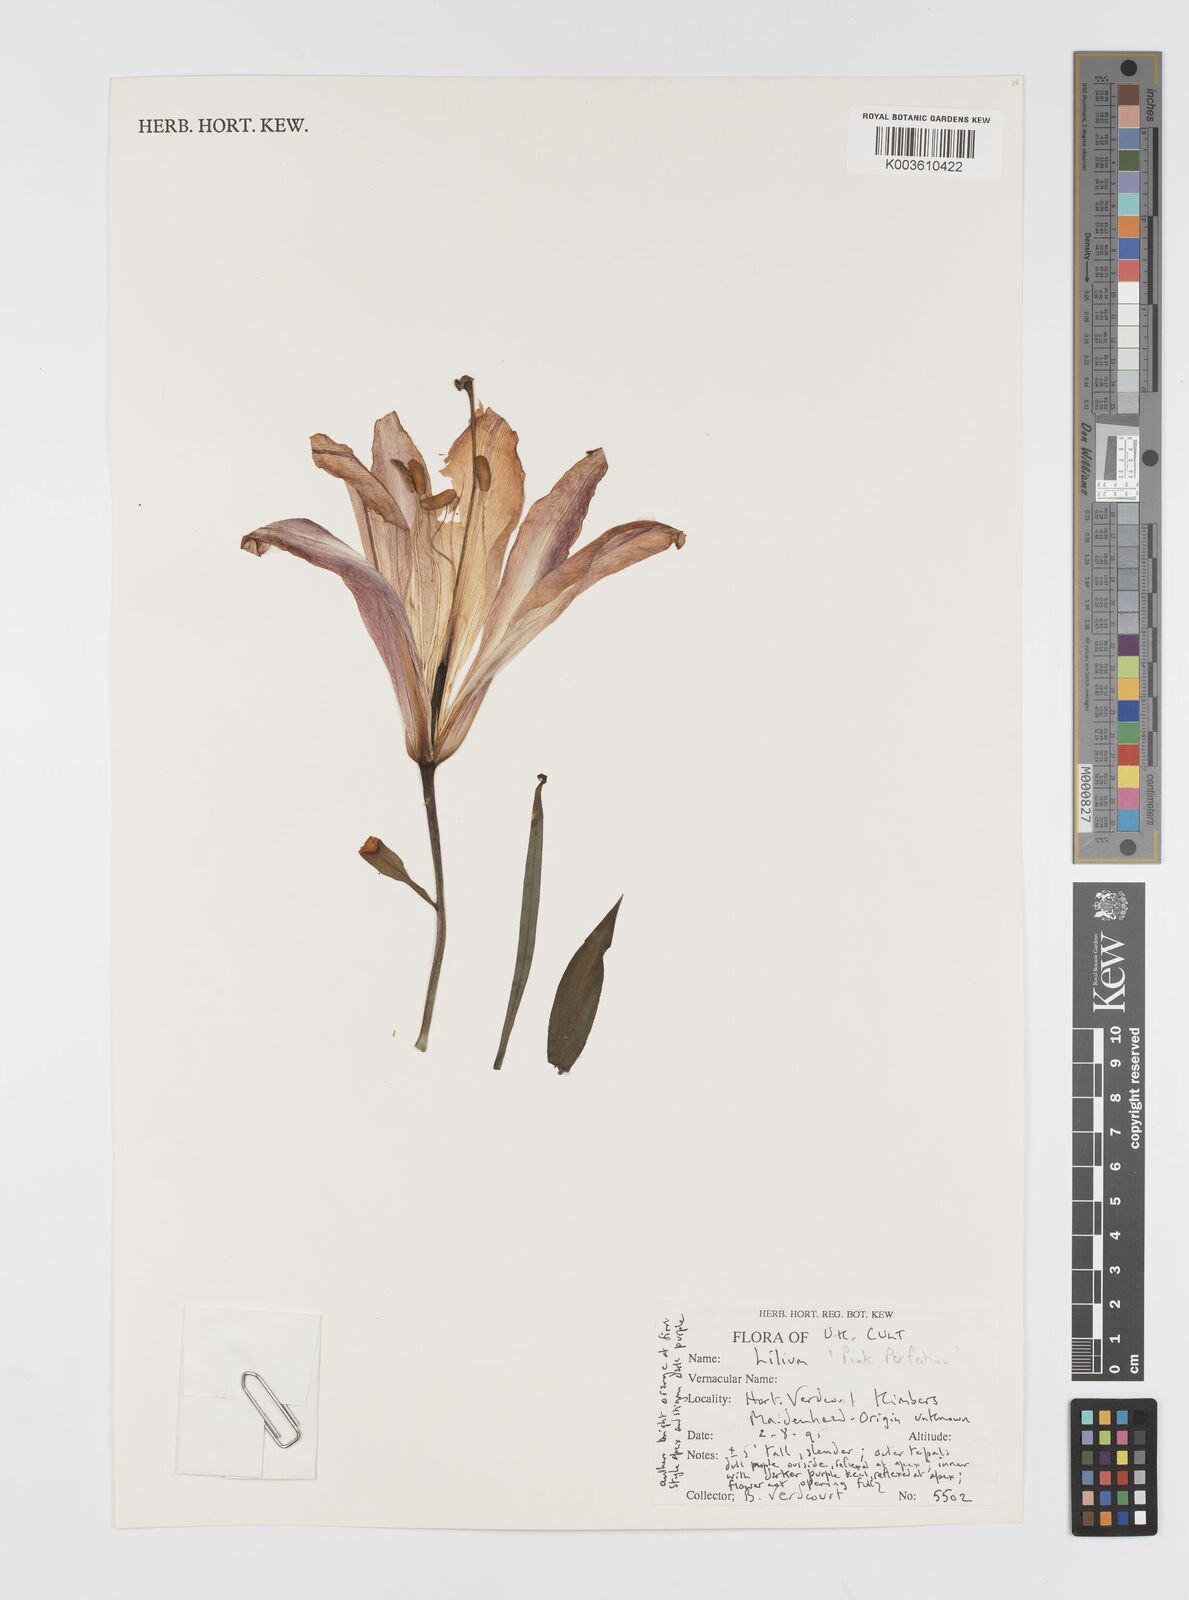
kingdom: Plantae
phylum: Tracheophyta
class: Liliopsida
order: Liliales
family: Liliaceae
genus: Lilium
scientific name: Lilium
